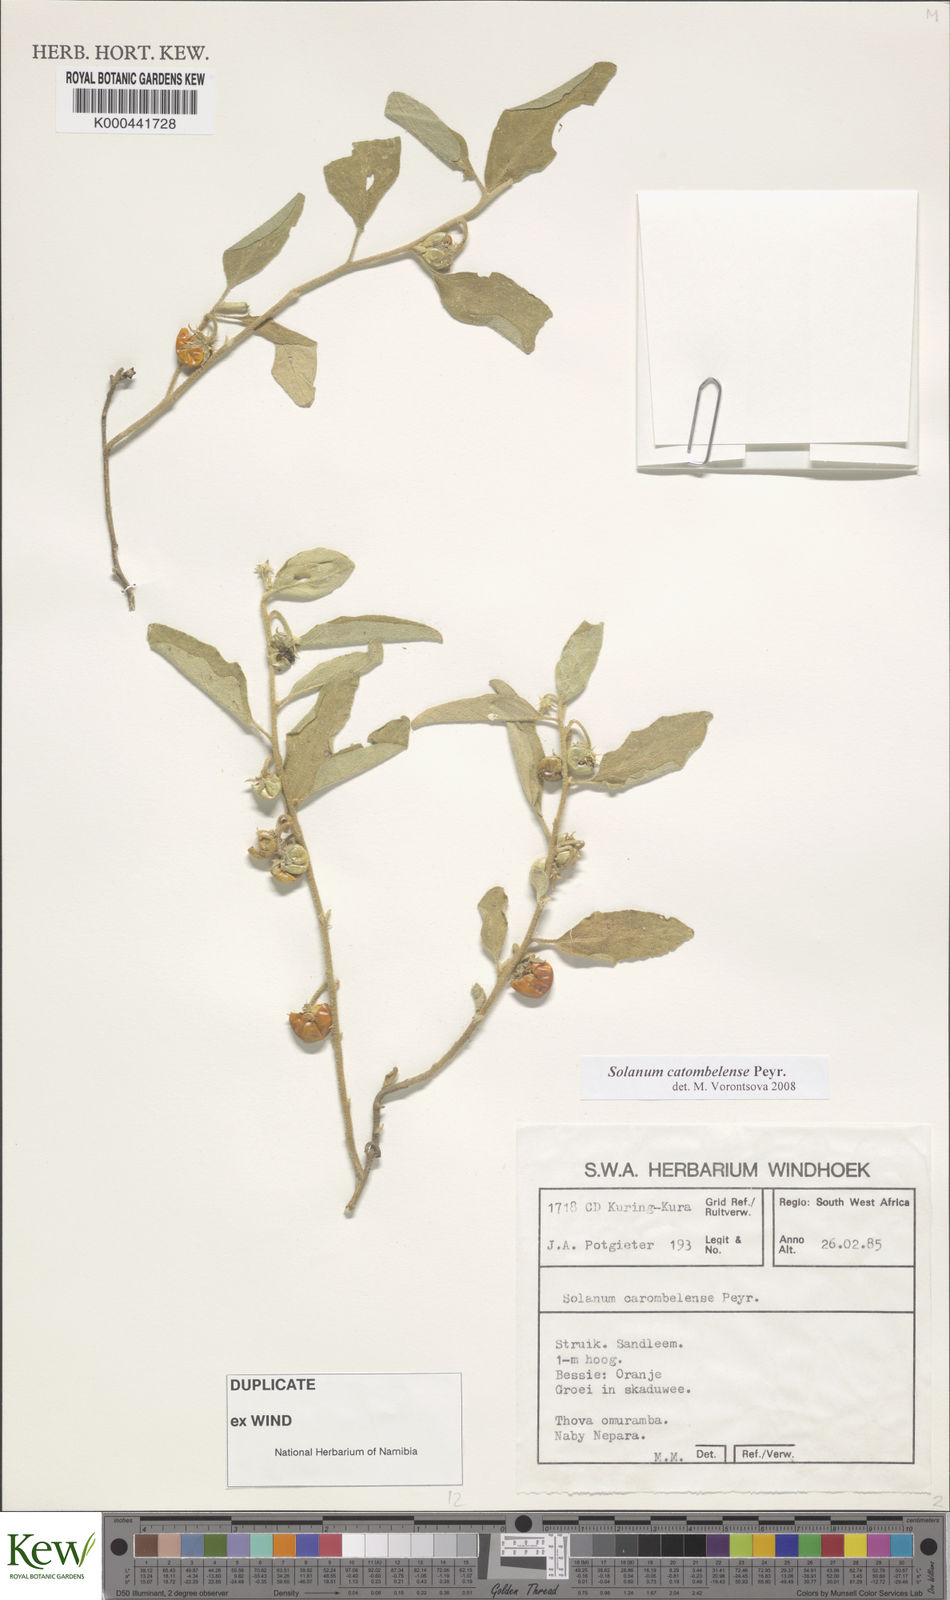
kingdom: Plantae
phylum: Tracheophyta
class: Magnoliopsida
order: Solanales
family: Solanaceae
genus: Solanum
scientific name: Solanum catombelense
